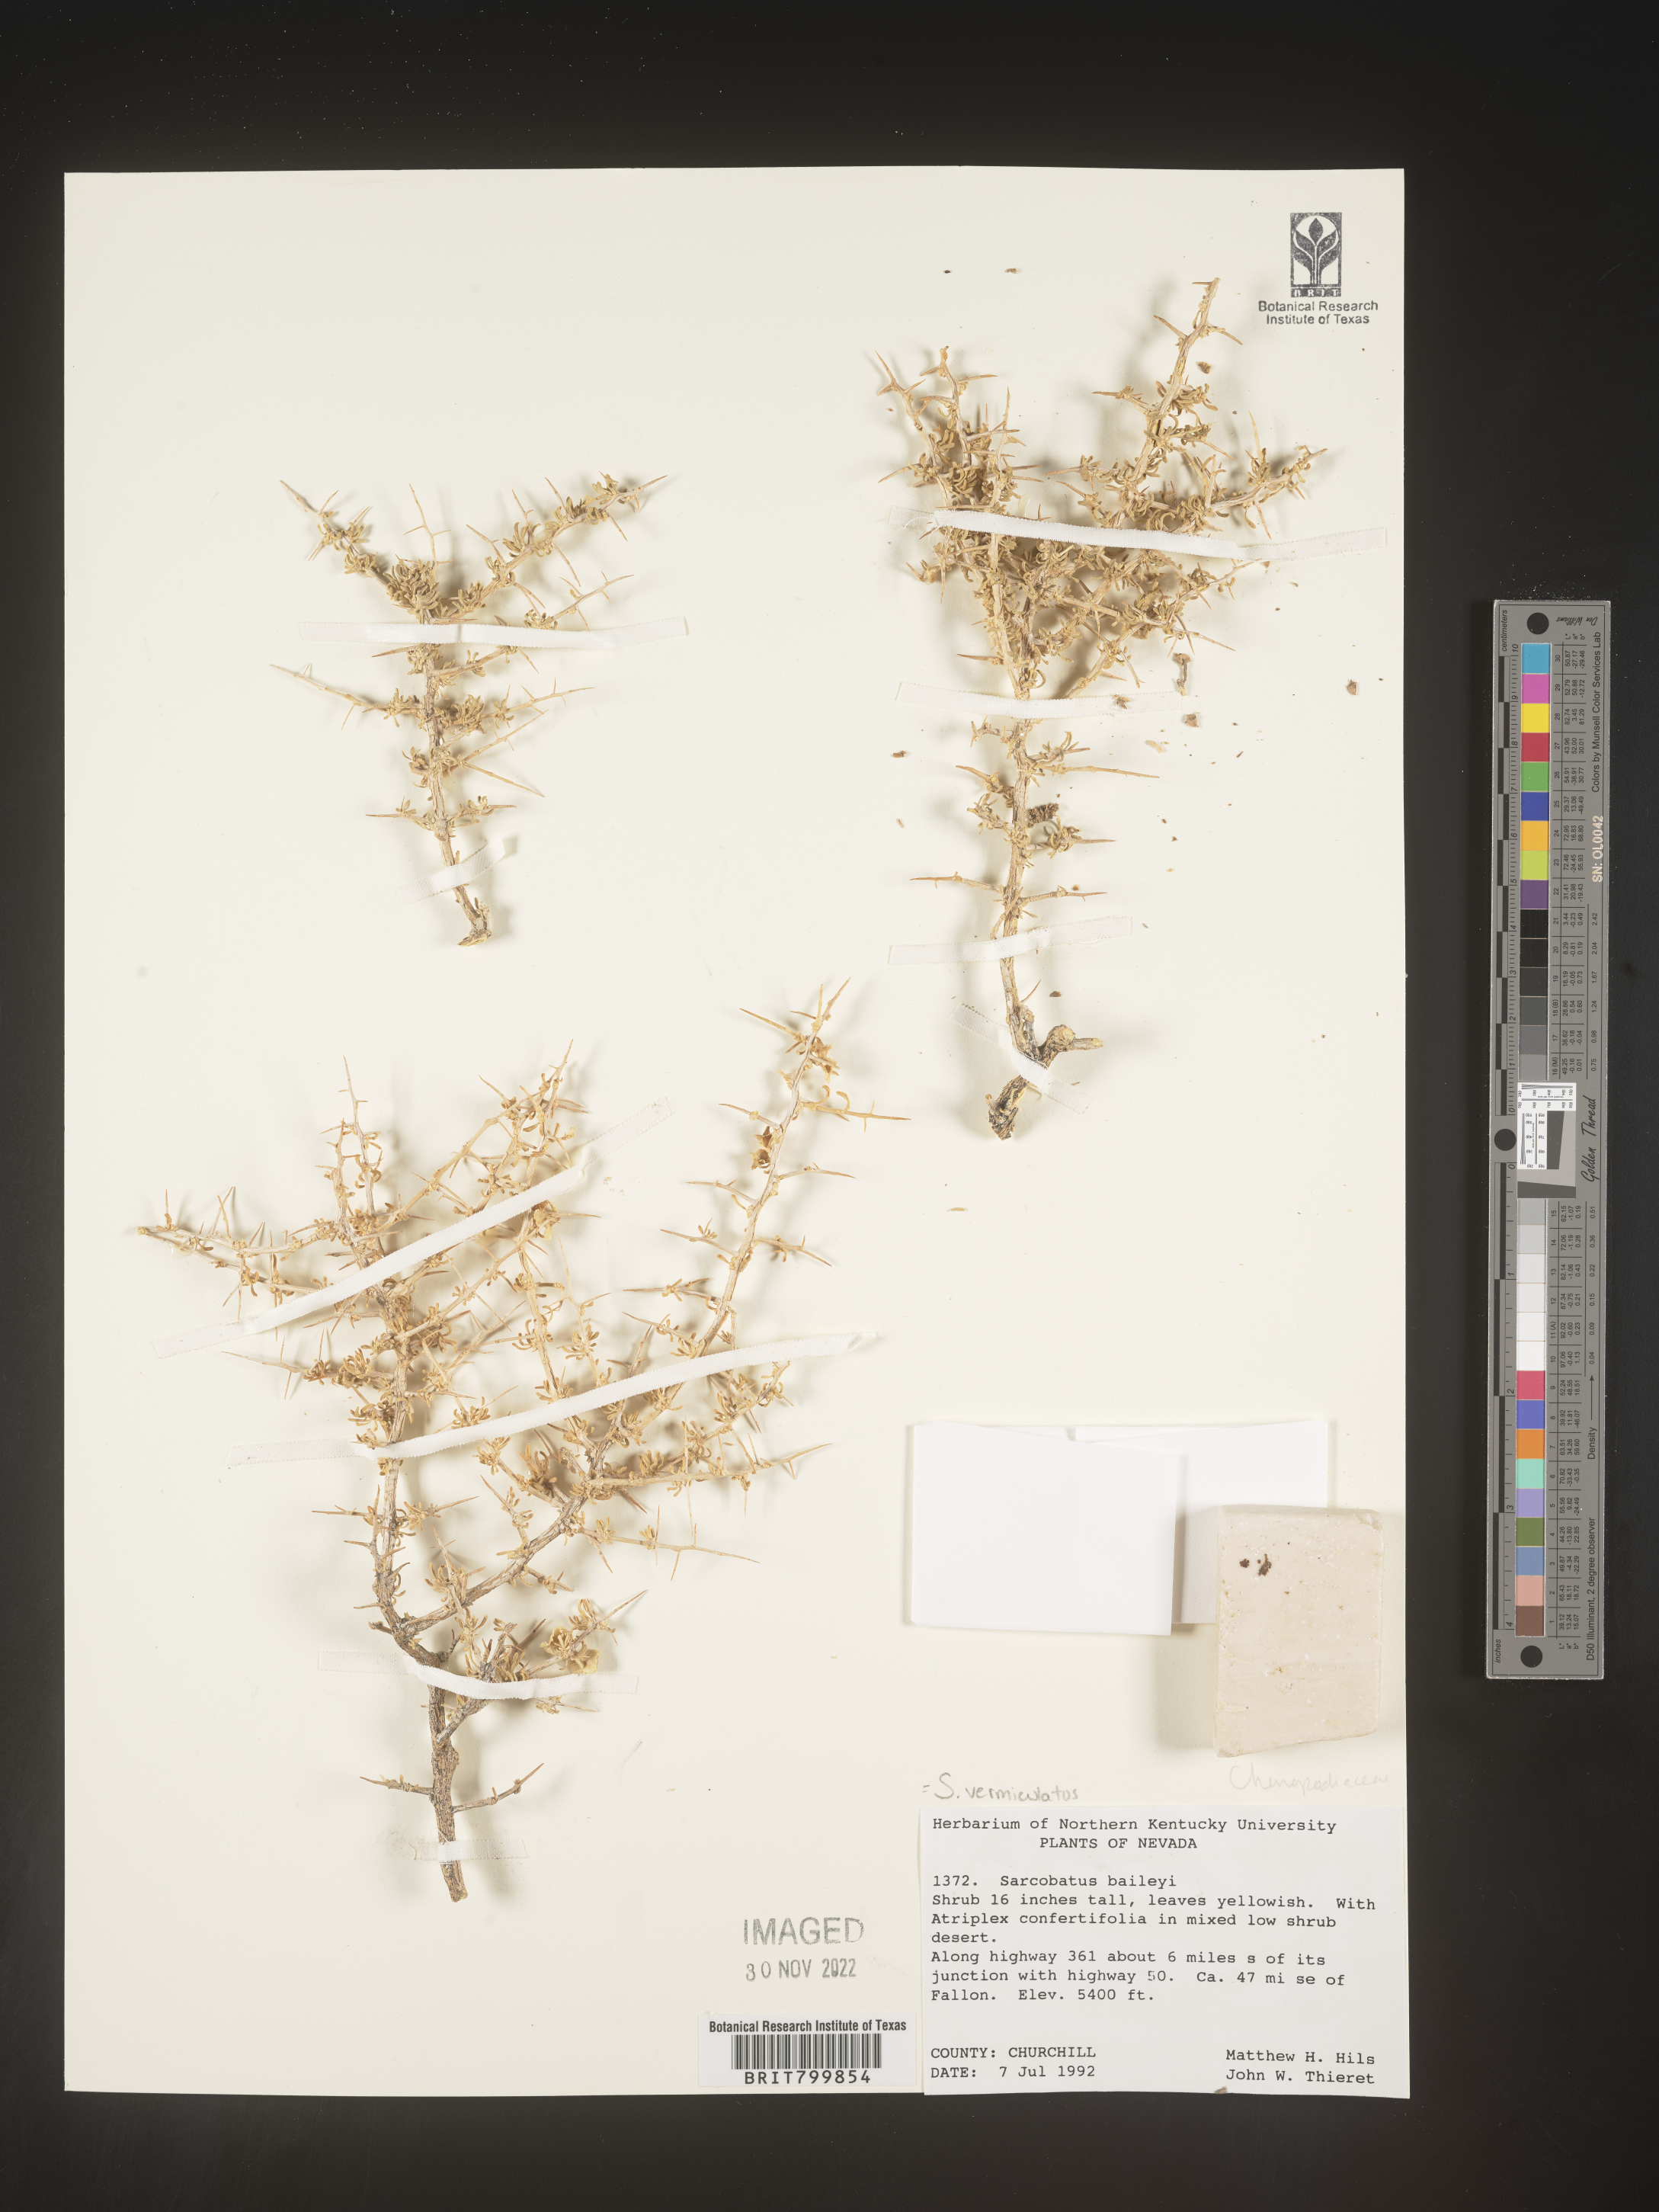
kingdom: Plantae
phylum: Tracheophyta
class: Magnoliopsida
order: Caryophyllales
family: Sarcobataceae
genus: Sarcobatus
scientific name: Sarcobatus vermiculatus
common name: Greasewood
